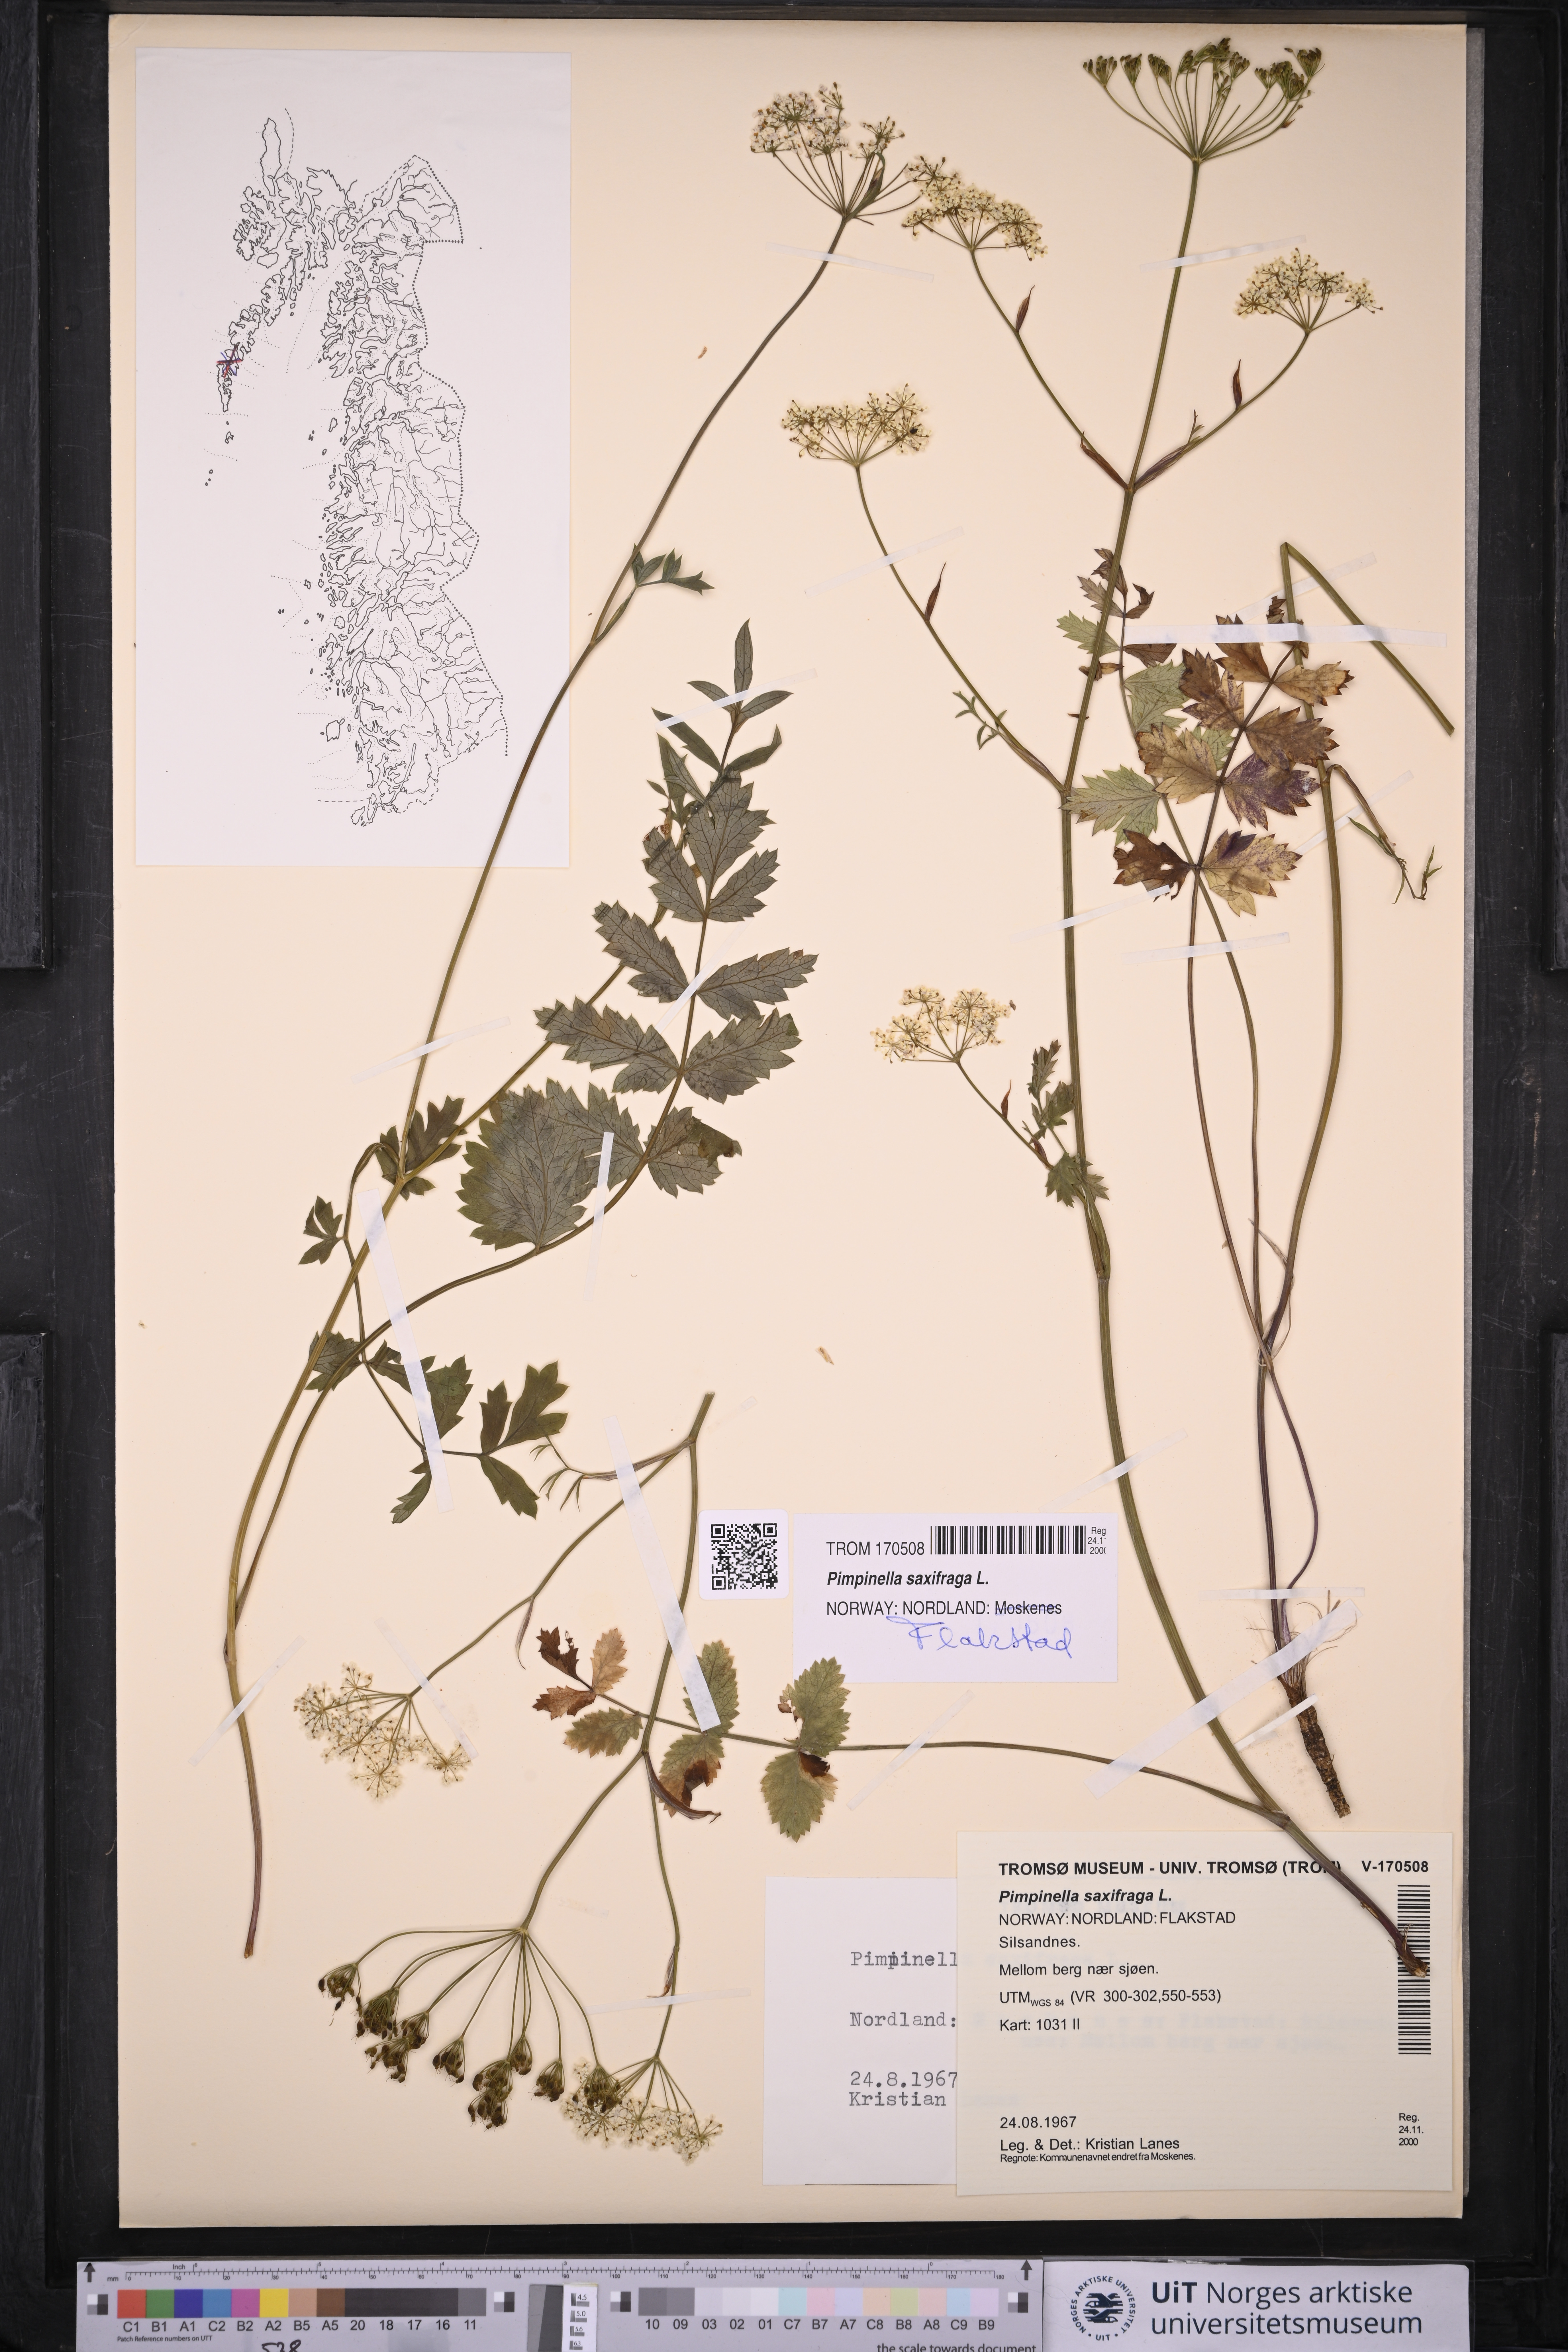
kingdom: Plantae
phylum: Tracheophyta
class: Magnoliopsida
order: Apiales
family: Apiaceae
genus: Pimpinella
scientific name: Pimpinella saxifraga
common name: Burnet-saxifrage
